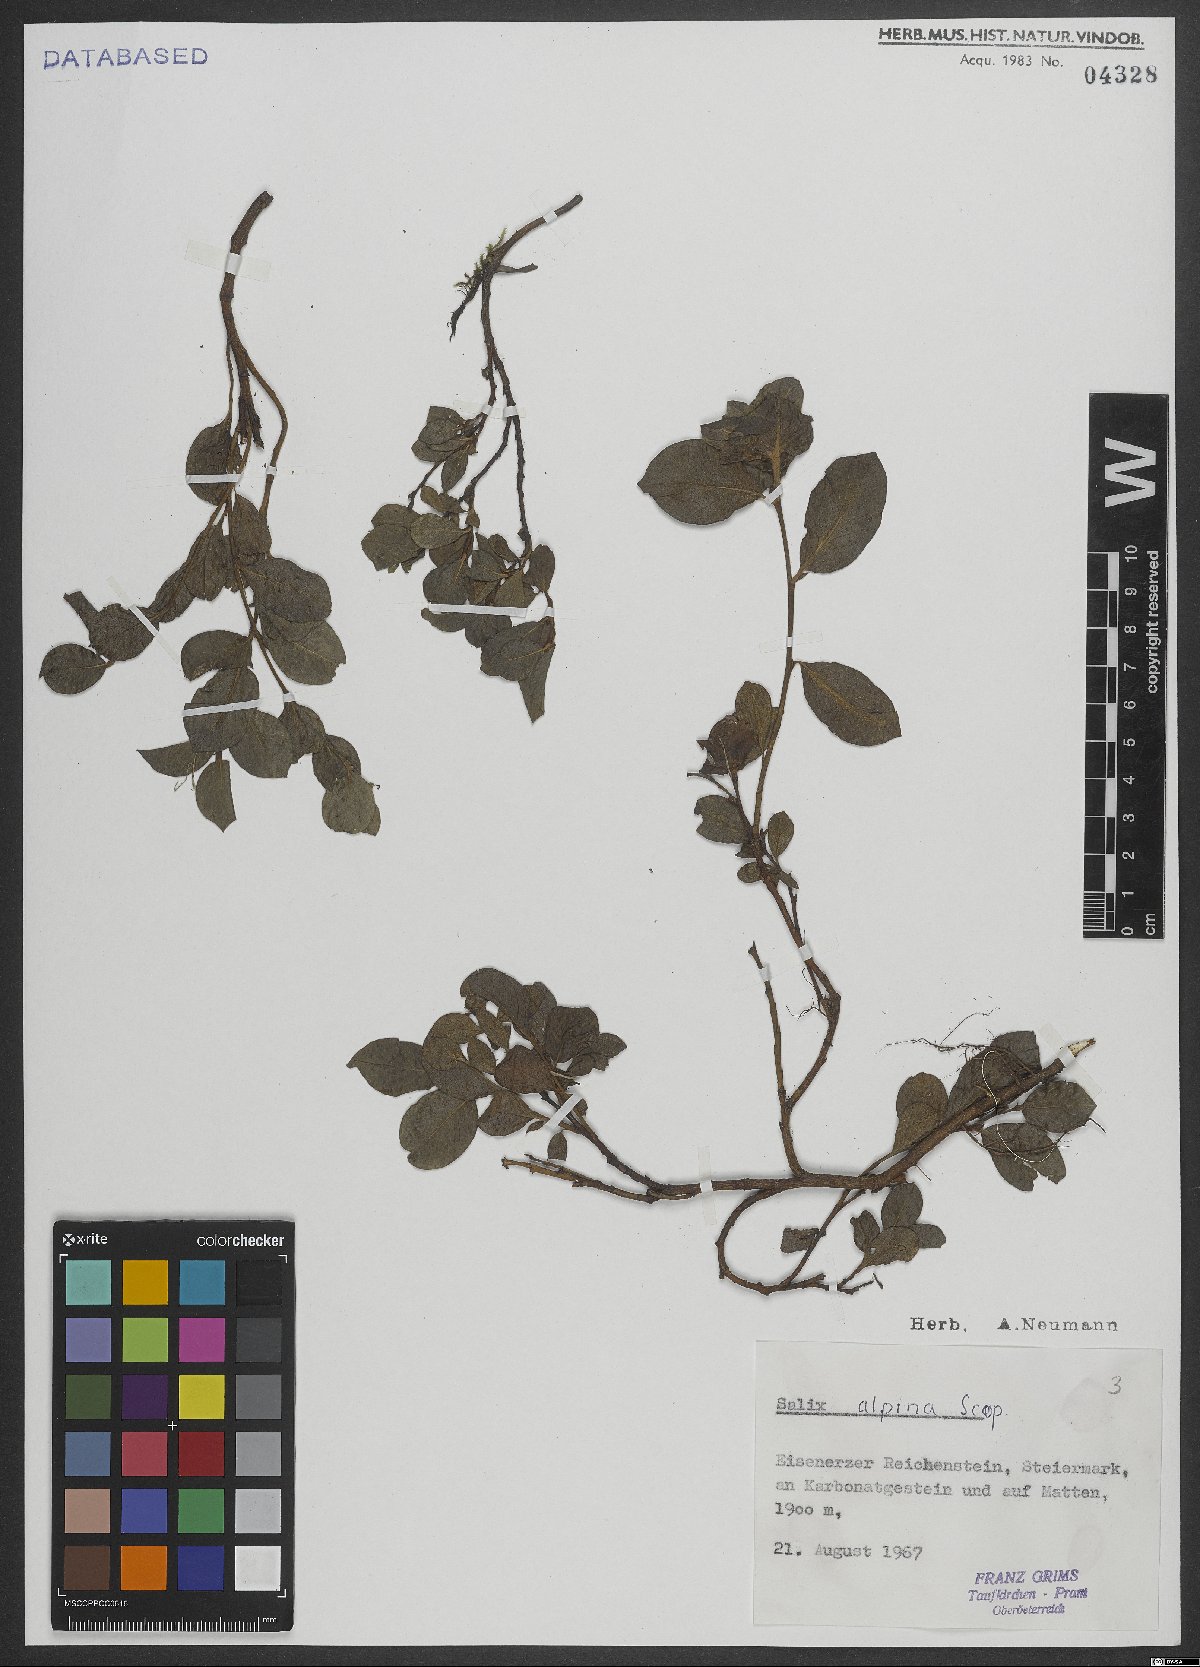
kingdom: Plantae
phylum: Tracheophyta
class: Magnoliopsida
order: Malpighiales
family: Salicaceae
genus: Salix
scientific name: Salix alpina
